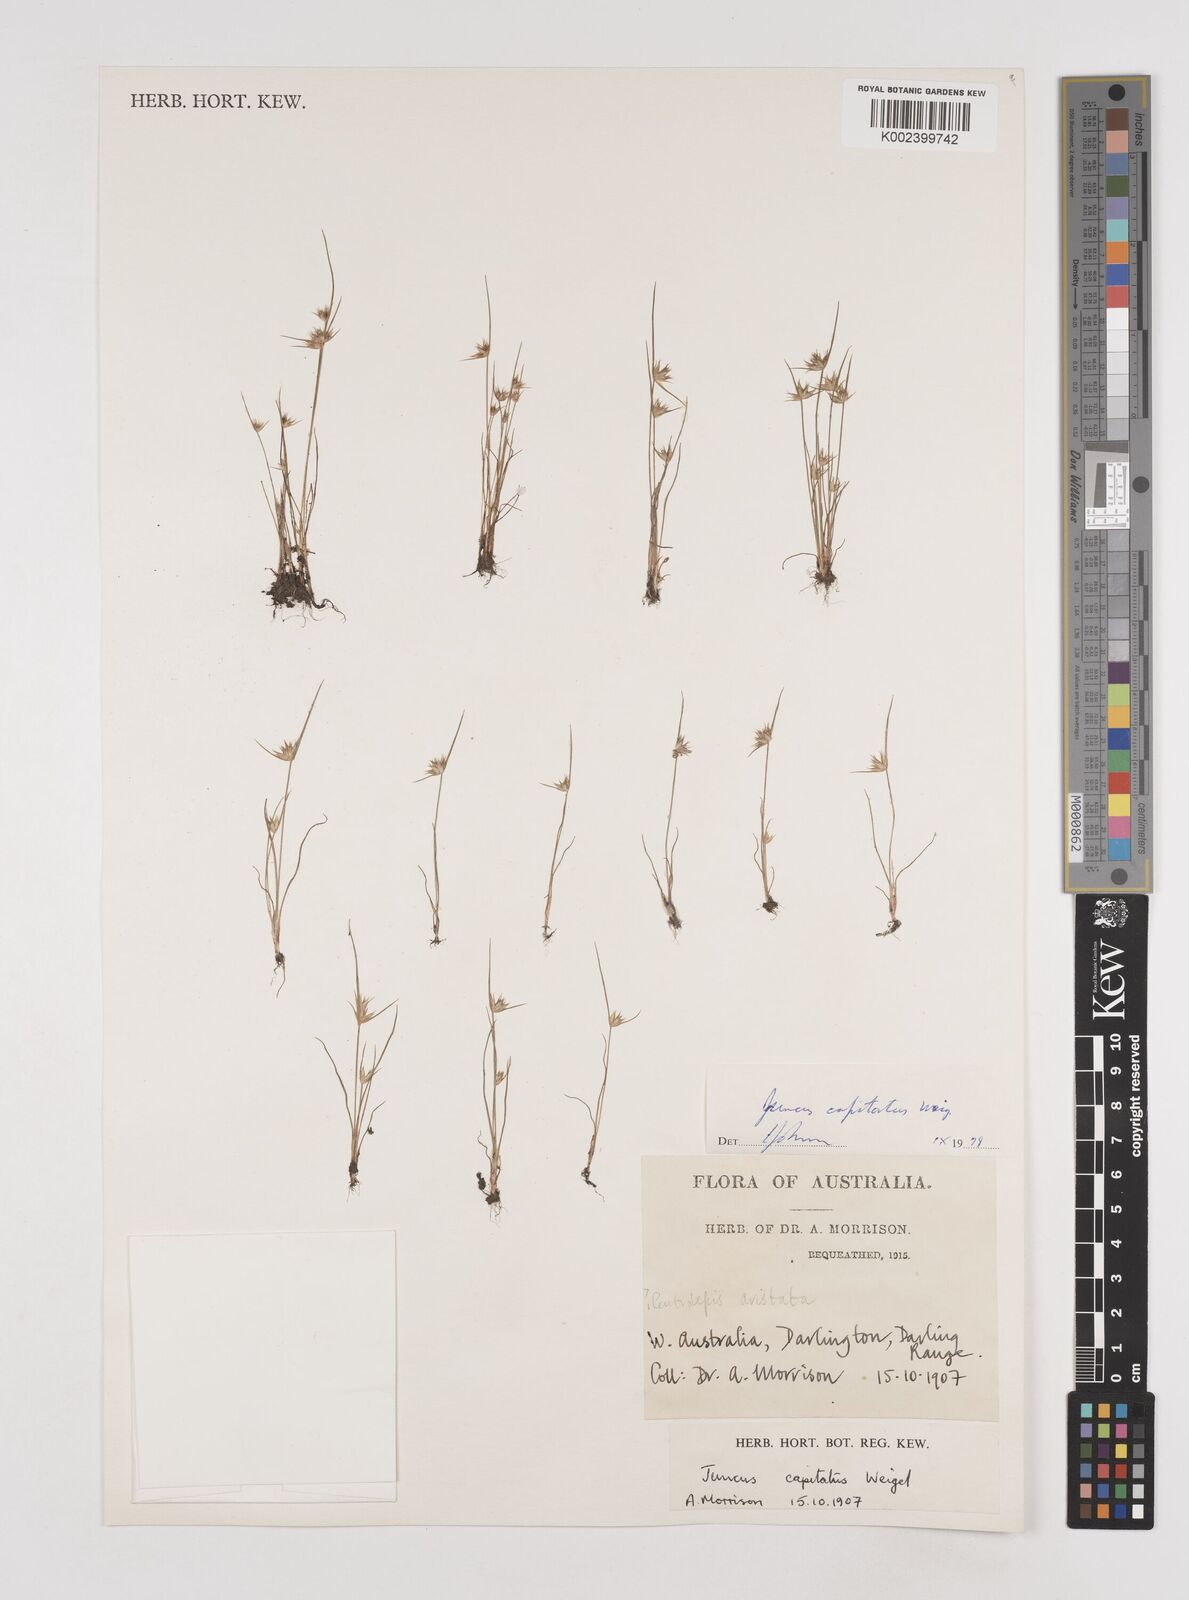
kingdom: Plantae
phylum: Tracheophyta
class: Liliopsida
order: Poales
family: Juncaceae
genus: Juncus
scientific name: Juncus capitatus
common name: Dwarf rush
